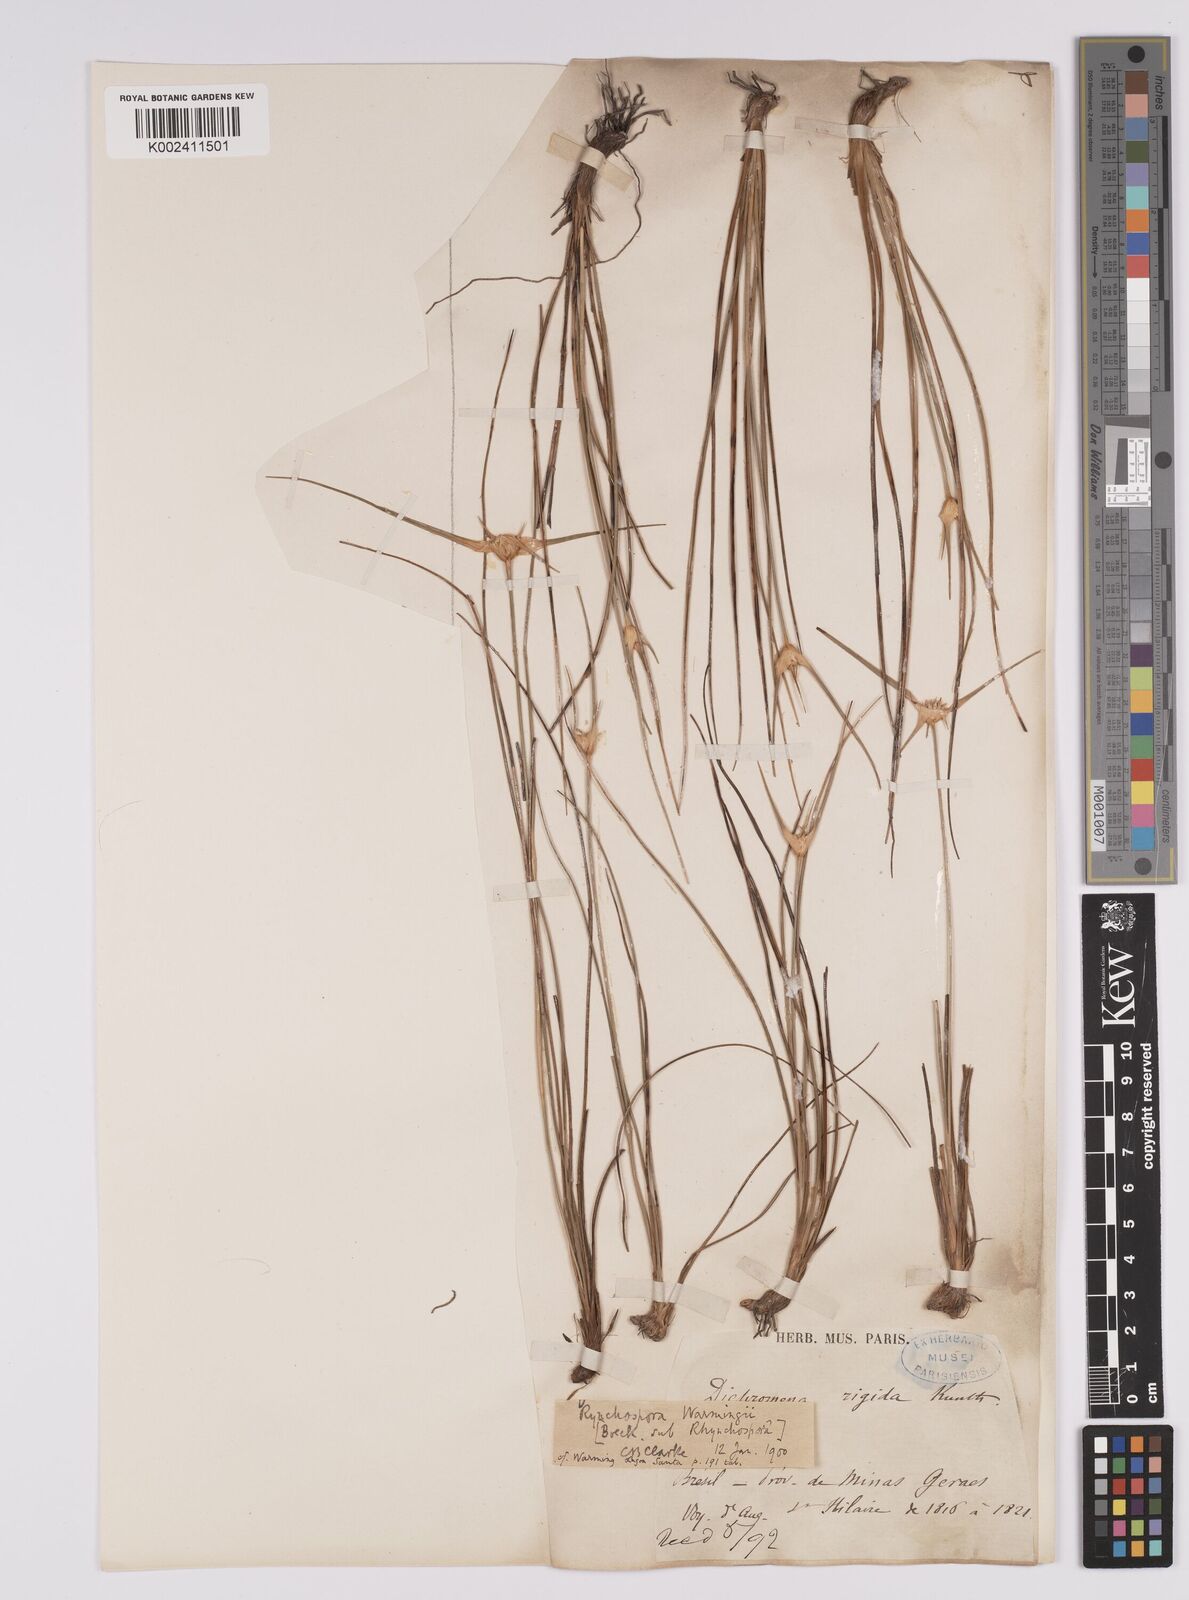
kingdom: Plantae
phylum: Tracheophyta
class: Liliopsida
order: Poales
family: Cyperaceae
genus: Rhynchospora
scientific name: Rhynchospora warmingii
